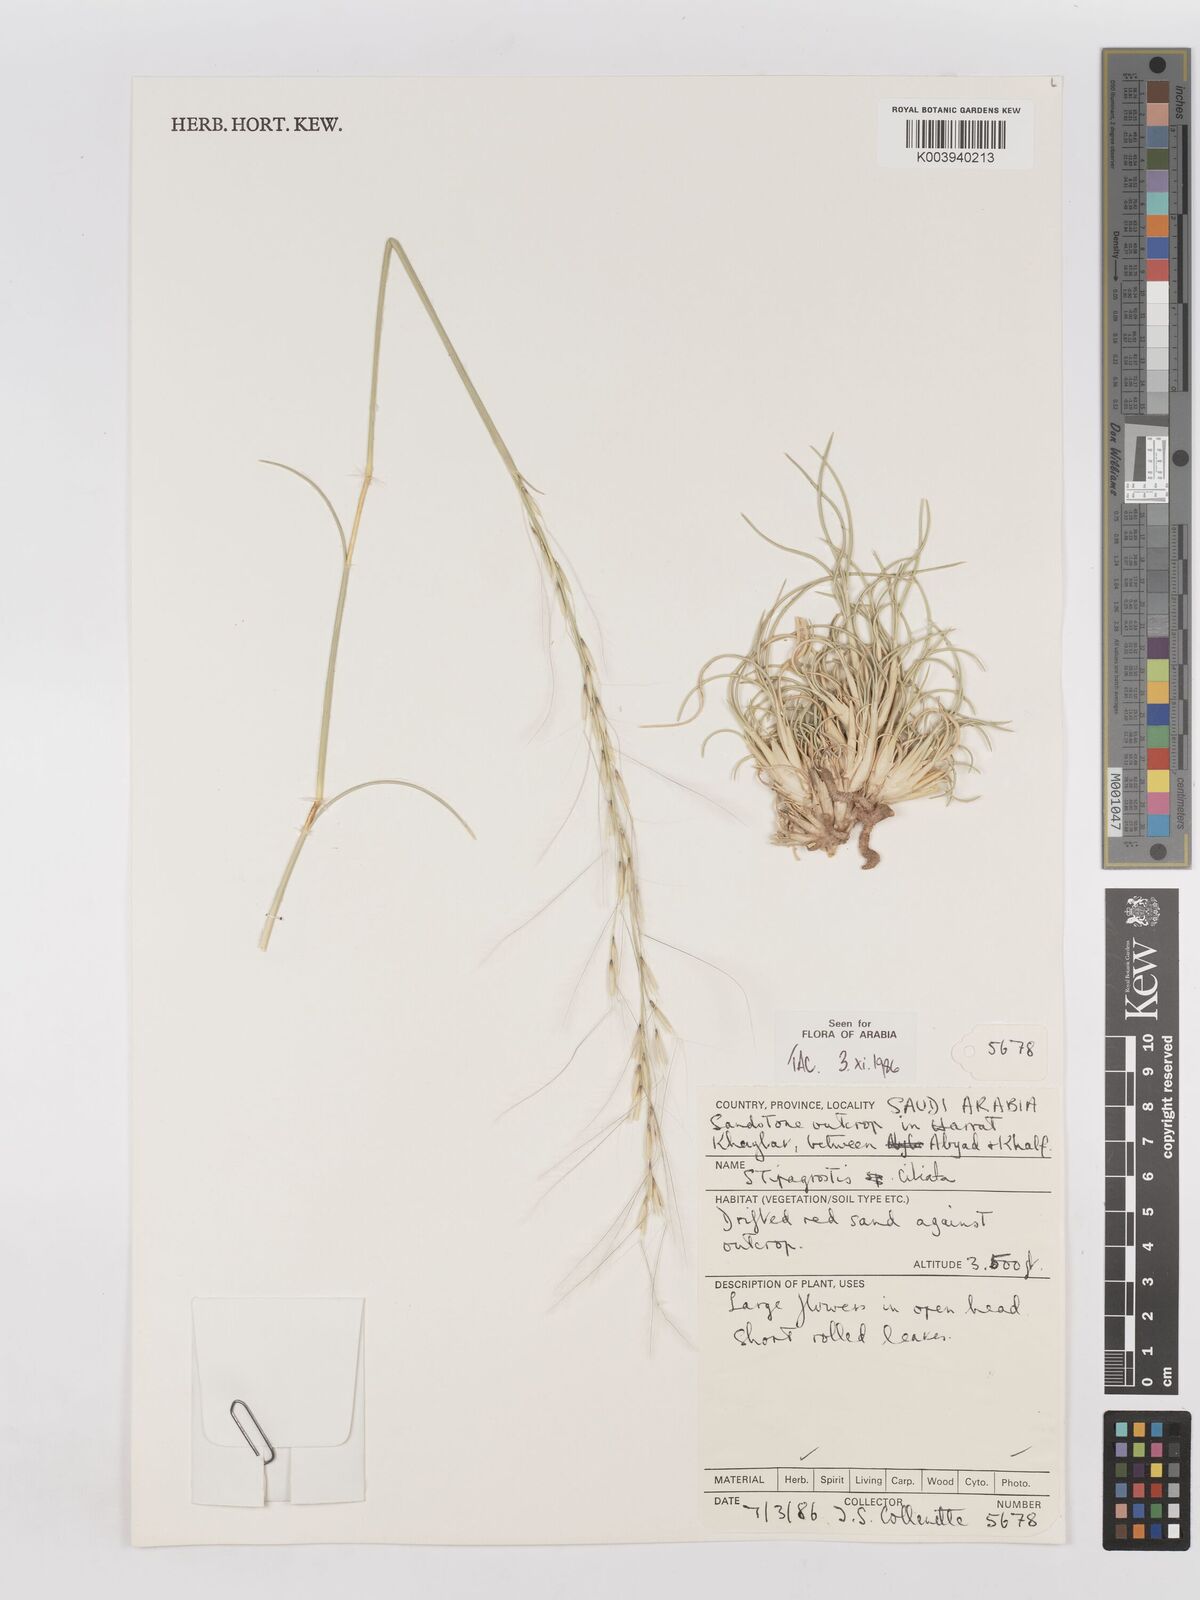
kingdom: Plantae
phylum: Tracheophyta
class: Liliopsida
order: Poales
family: Poaceae
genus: Stipagrostis
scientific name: Stipagrostis ciliata
